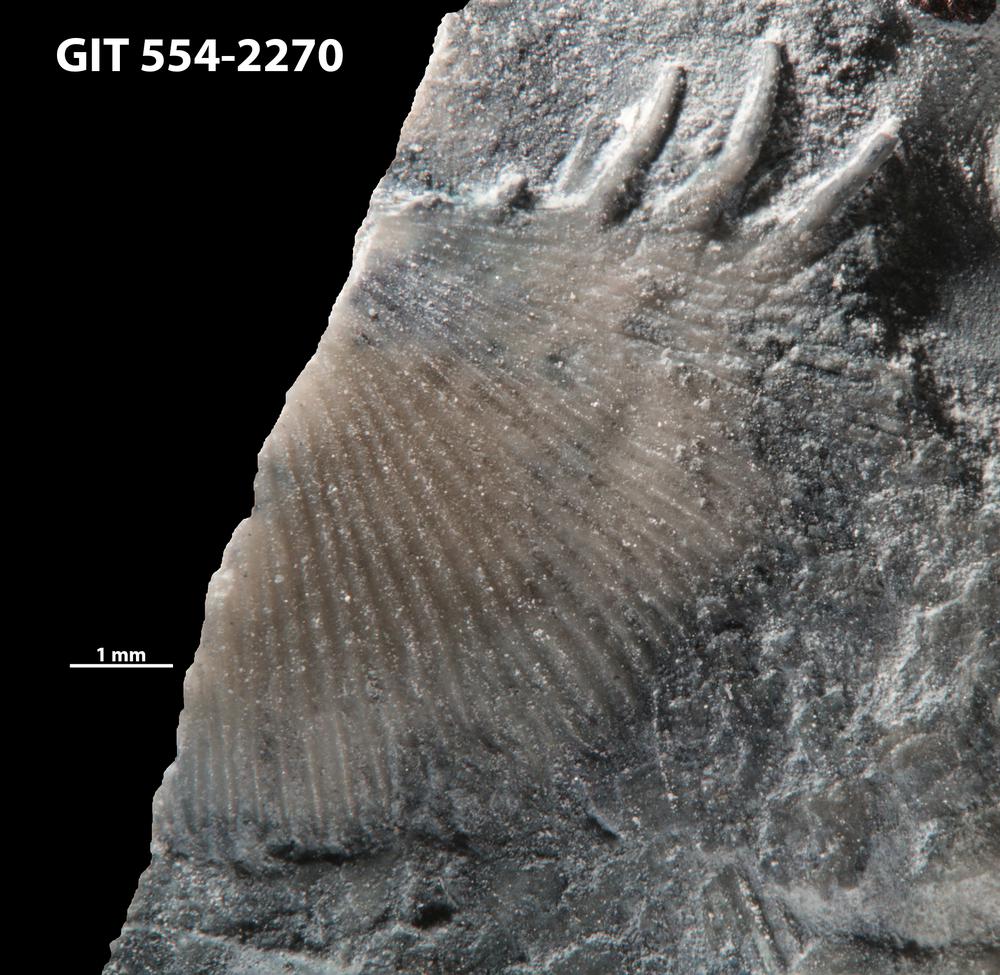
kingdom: Animalia
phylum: Brachiopoda
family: Strophochonetidae
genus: Protochonetes
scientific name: Protochonetes Orthis striatella
